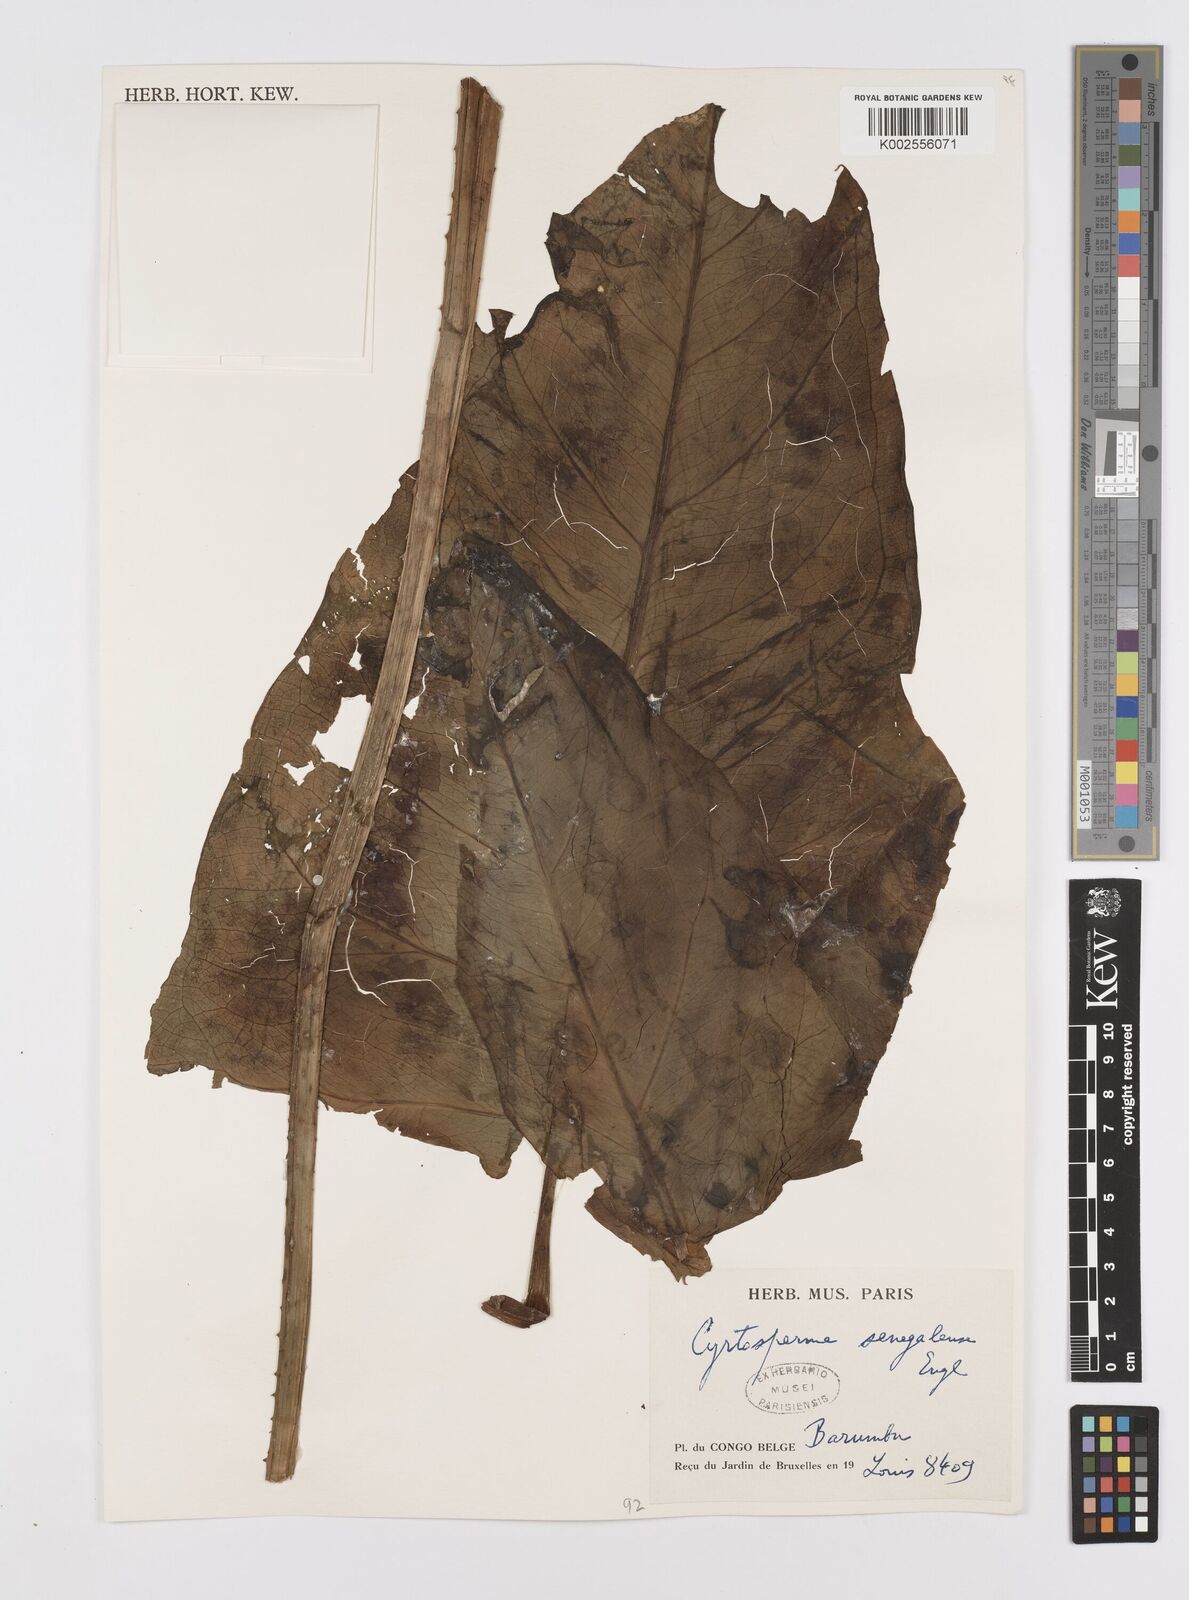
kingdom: Plantae
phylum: Tracheophyta
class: Liliopsida
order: Alismatales
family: Araceae
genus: Lasimorpha
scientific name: Lasimorpha
